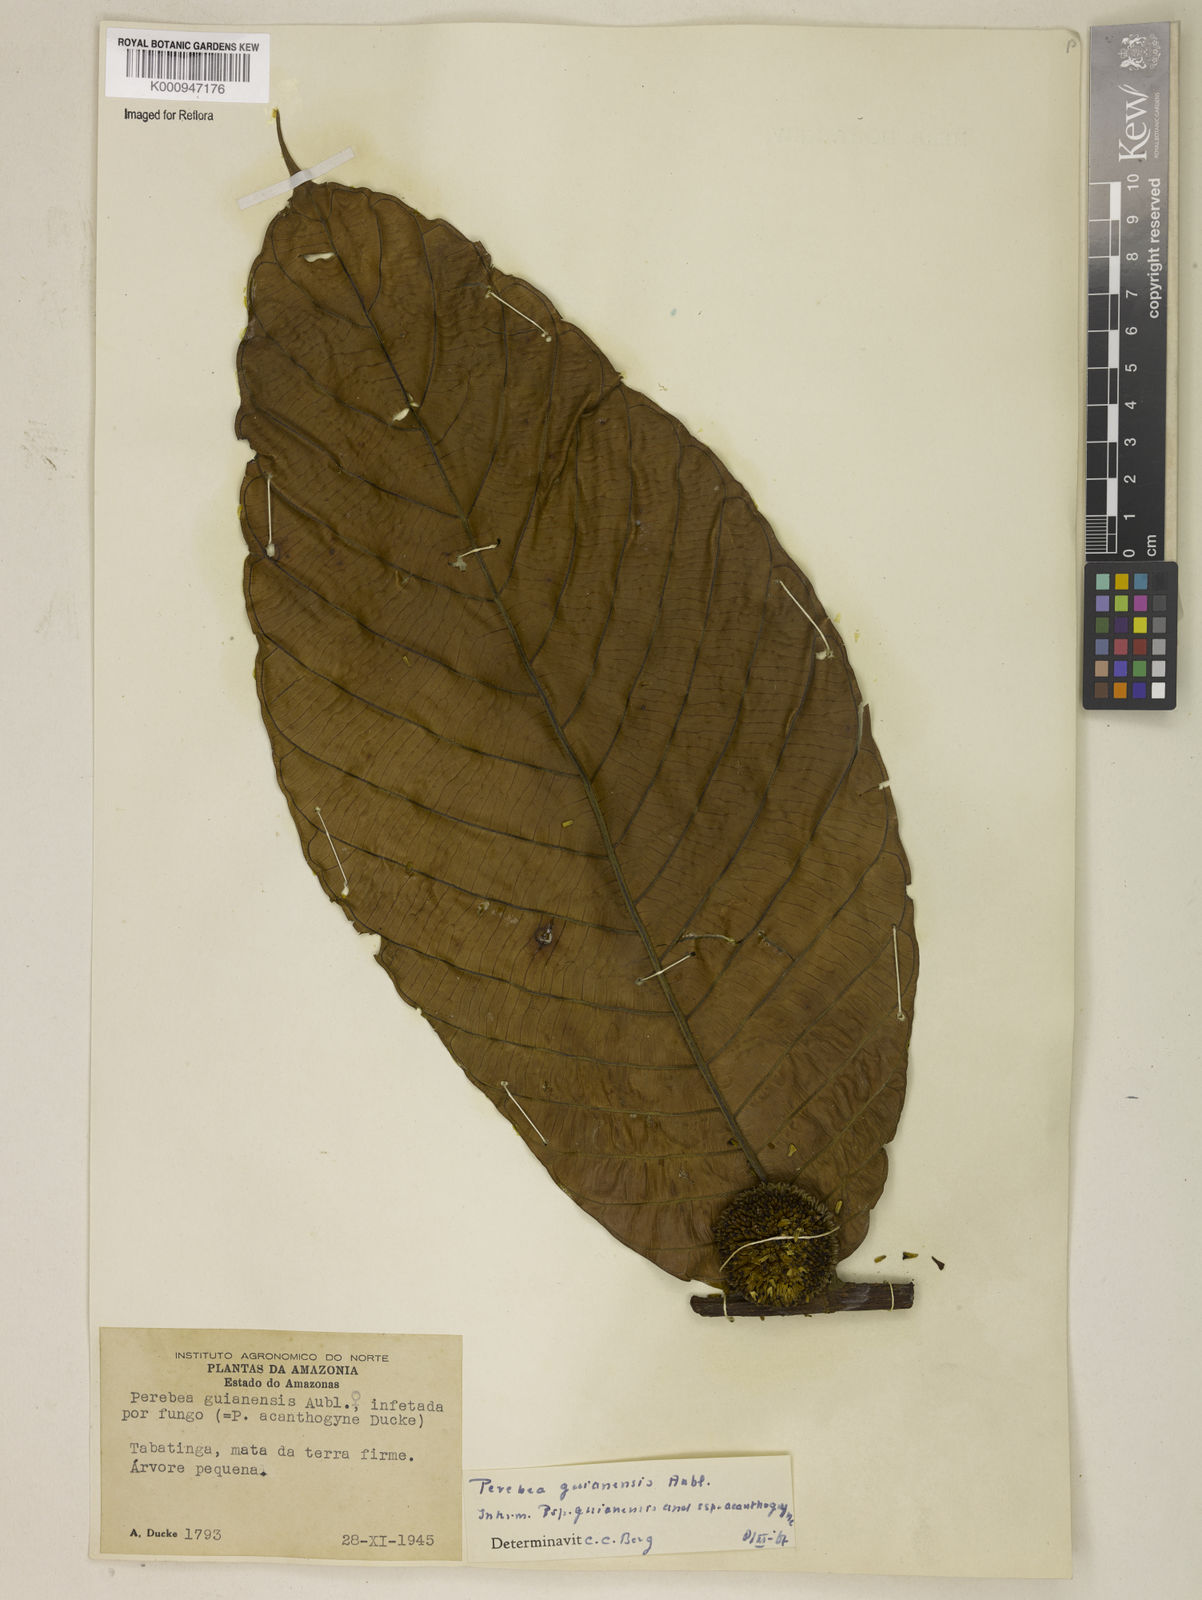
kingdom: Plantae
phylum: Tracheophyta
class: Magnoliopsida
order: Rosales
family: Moraceae
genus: Perebea
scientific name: Perebea guianensis
